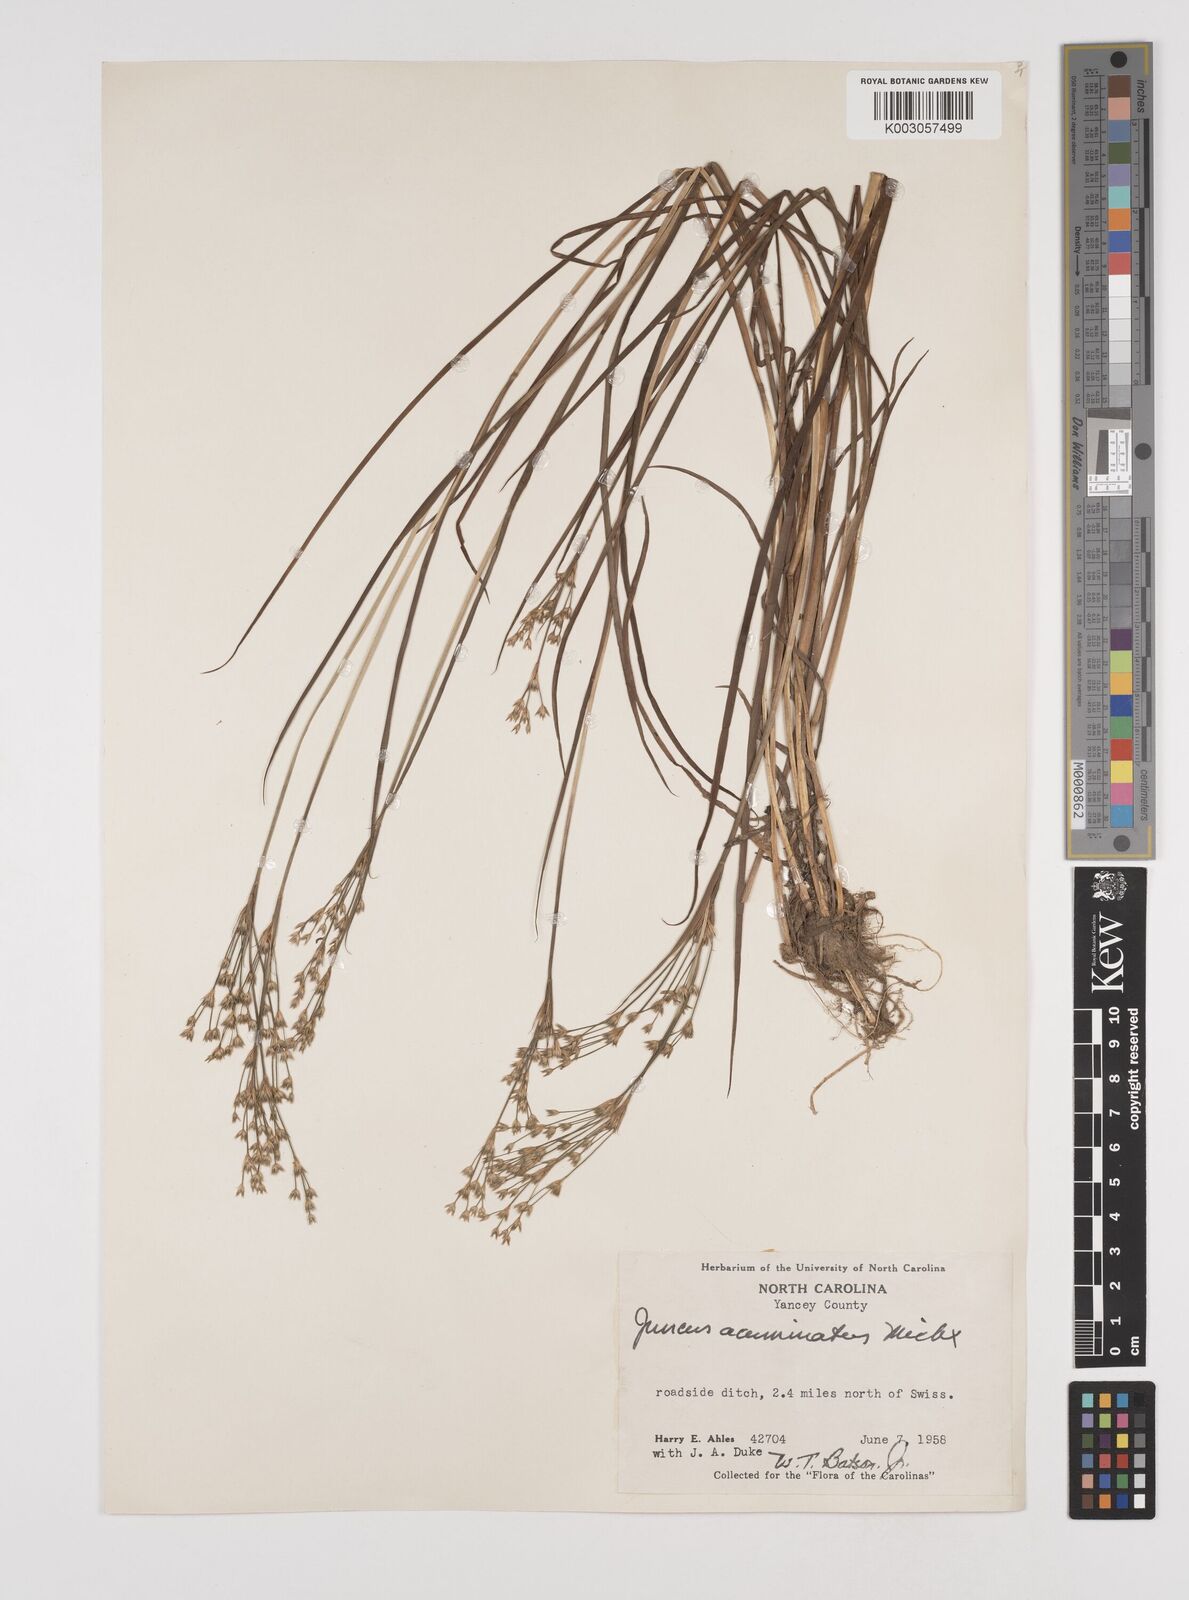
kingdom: Plantae
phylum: Tracheophyta
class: Liliopsida
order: Poales
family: Juncaceae
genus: Juncus
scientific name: Juncus acuminatus
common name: Knotty-leaved rush
